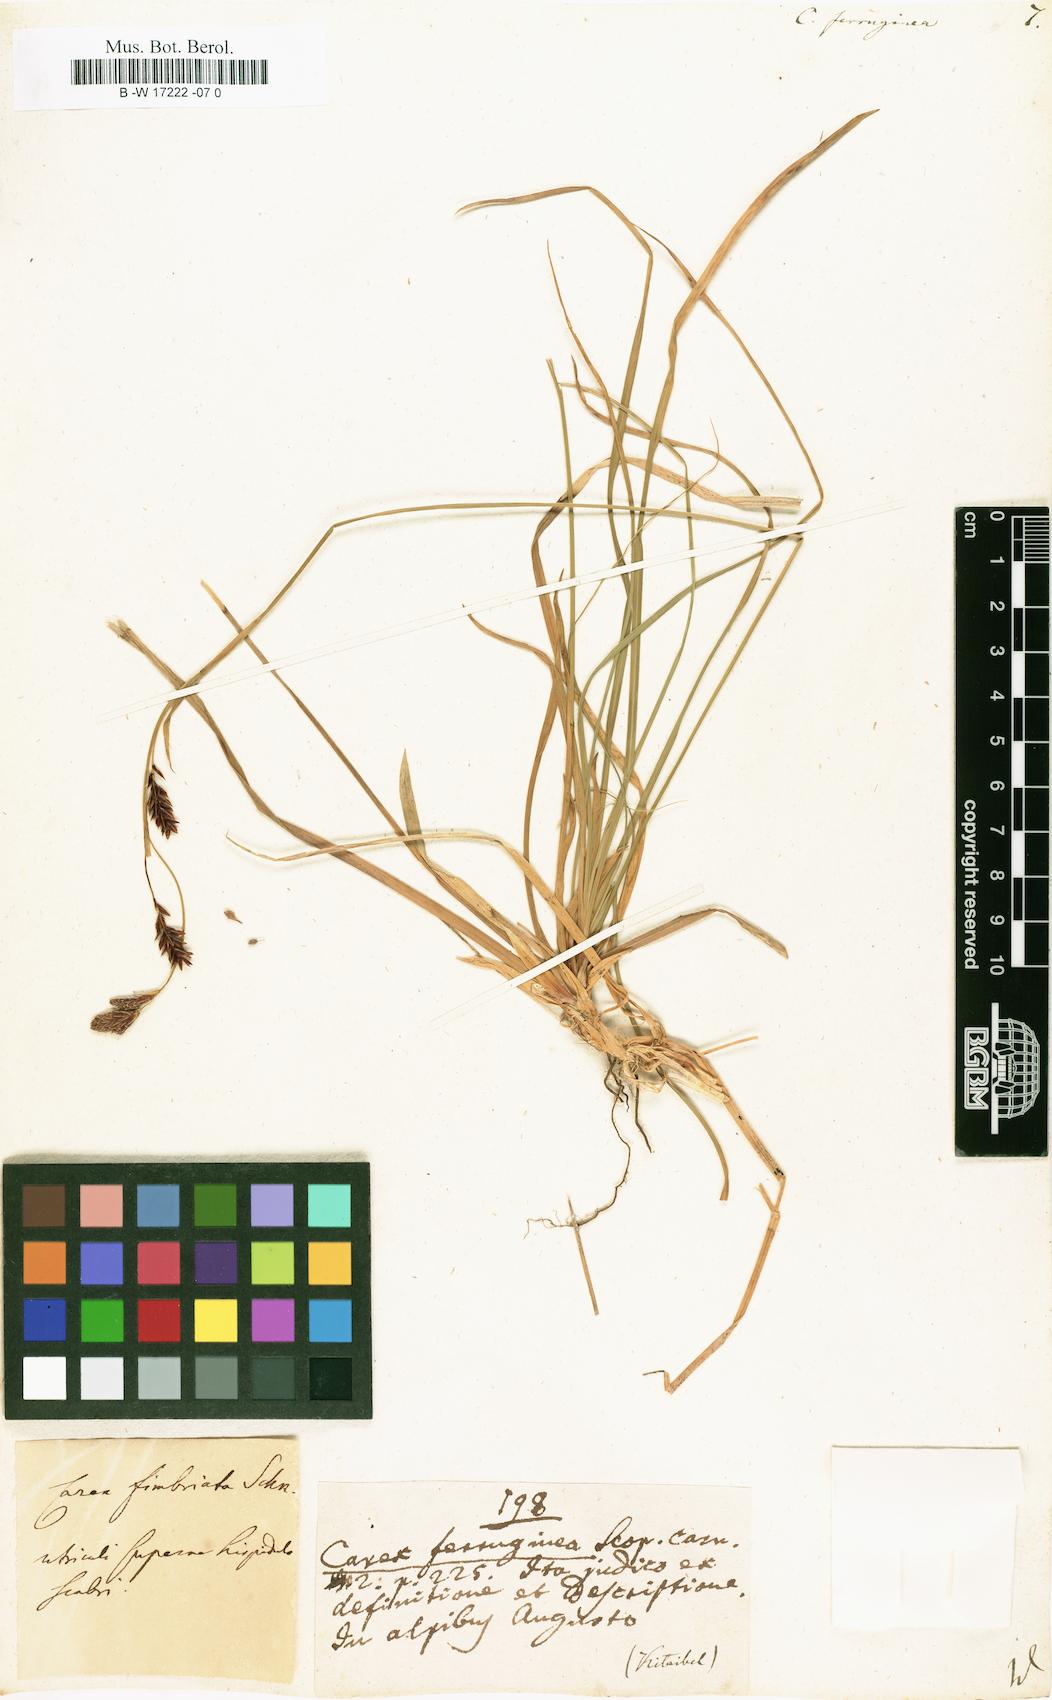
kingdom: Plantae
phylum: Tracheophyta
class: Liliopsida
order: Poales
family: Cyperaceae
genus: Carex
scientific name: Carex ferruginea
